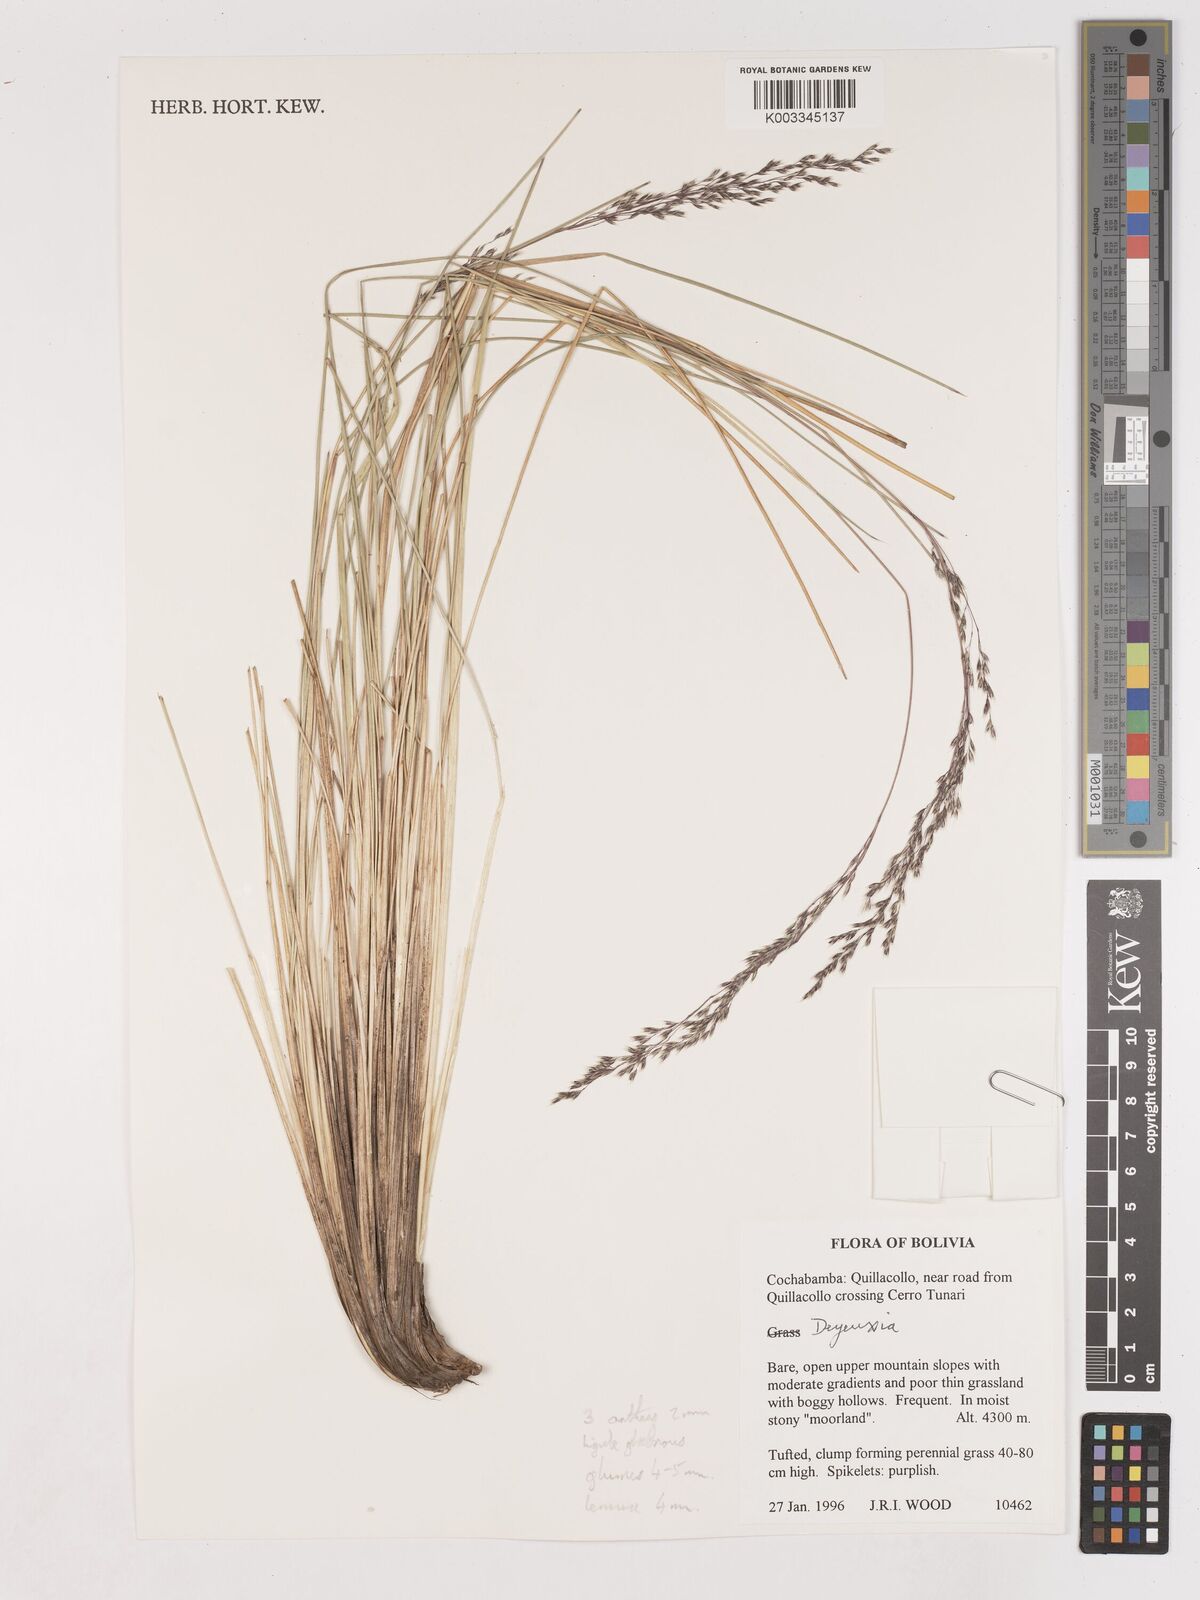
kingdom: Plantae
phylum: Tracheophyta
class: Liliopsida
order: Poales
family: Poaceae
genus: Calamagrostis
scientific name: Calamagrostis
